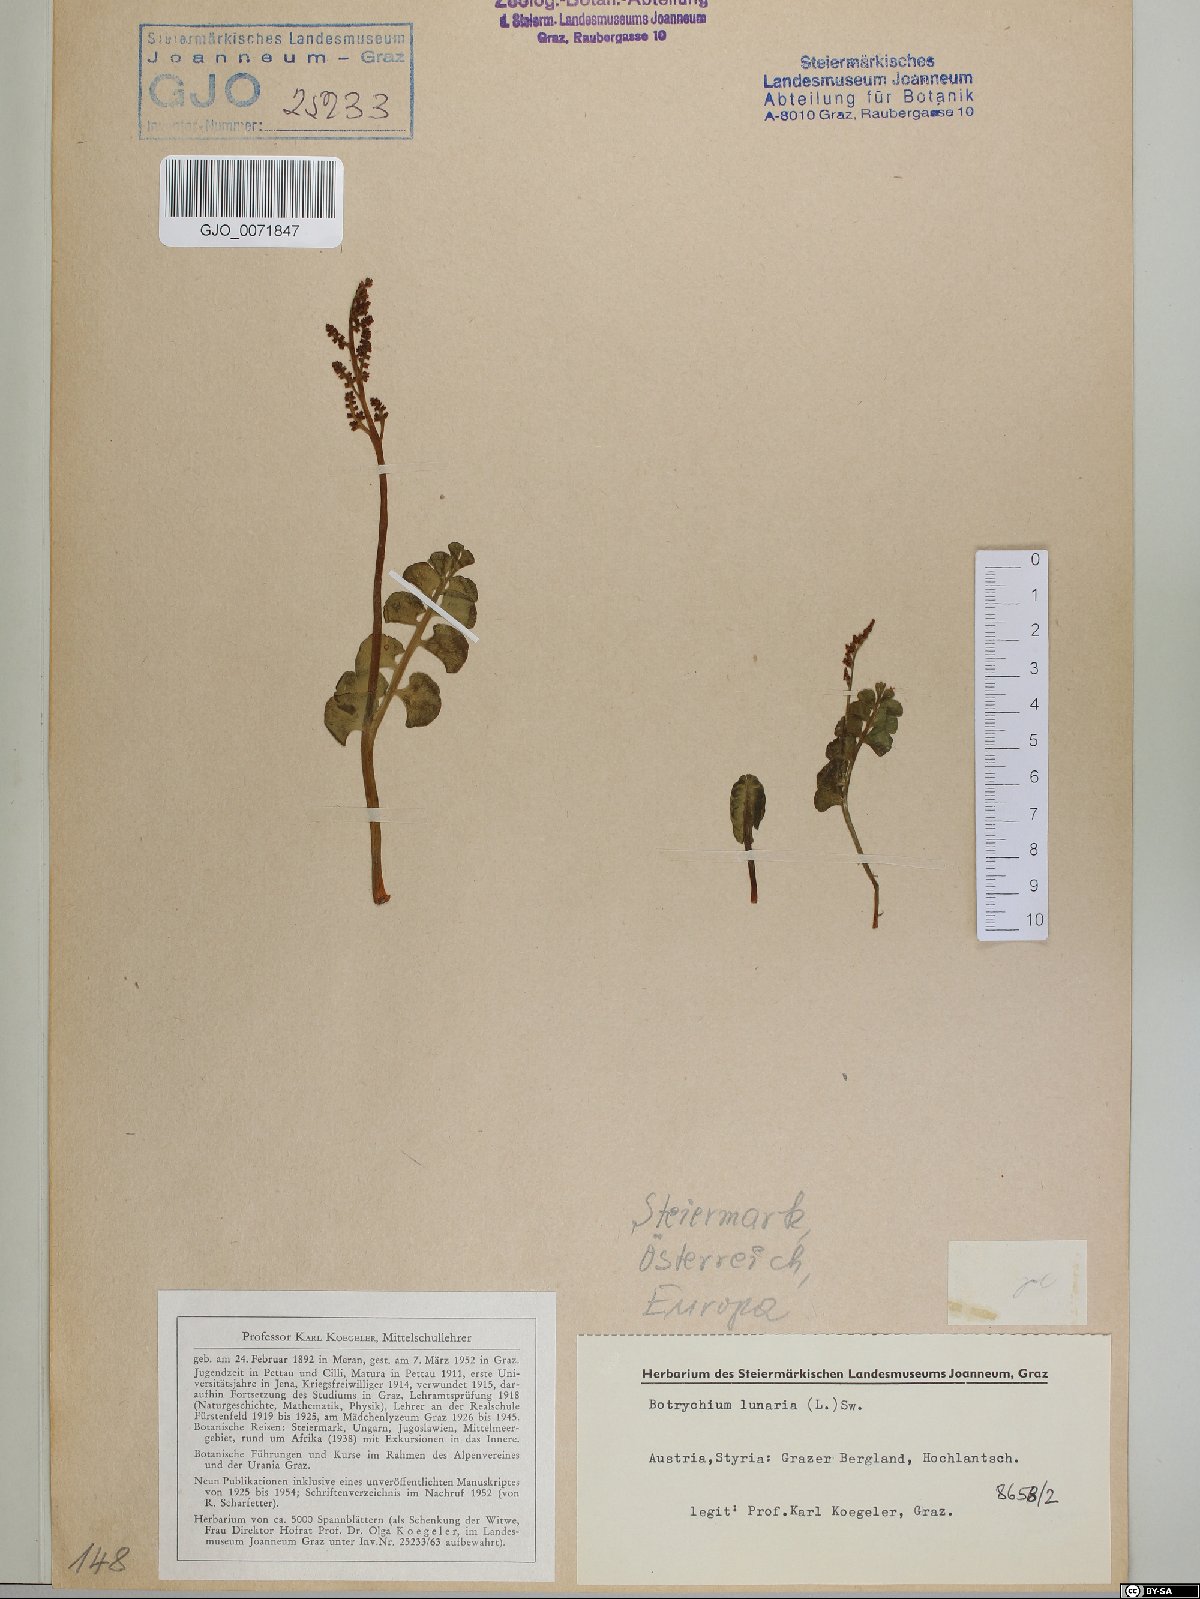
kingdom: Plantae
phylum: Tracheophyta
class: Polypodiopsida
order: Ophioglossales
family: Ophioglossaceae
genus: Botrychium
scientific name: Botrychium lunaria
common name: Moonwort
